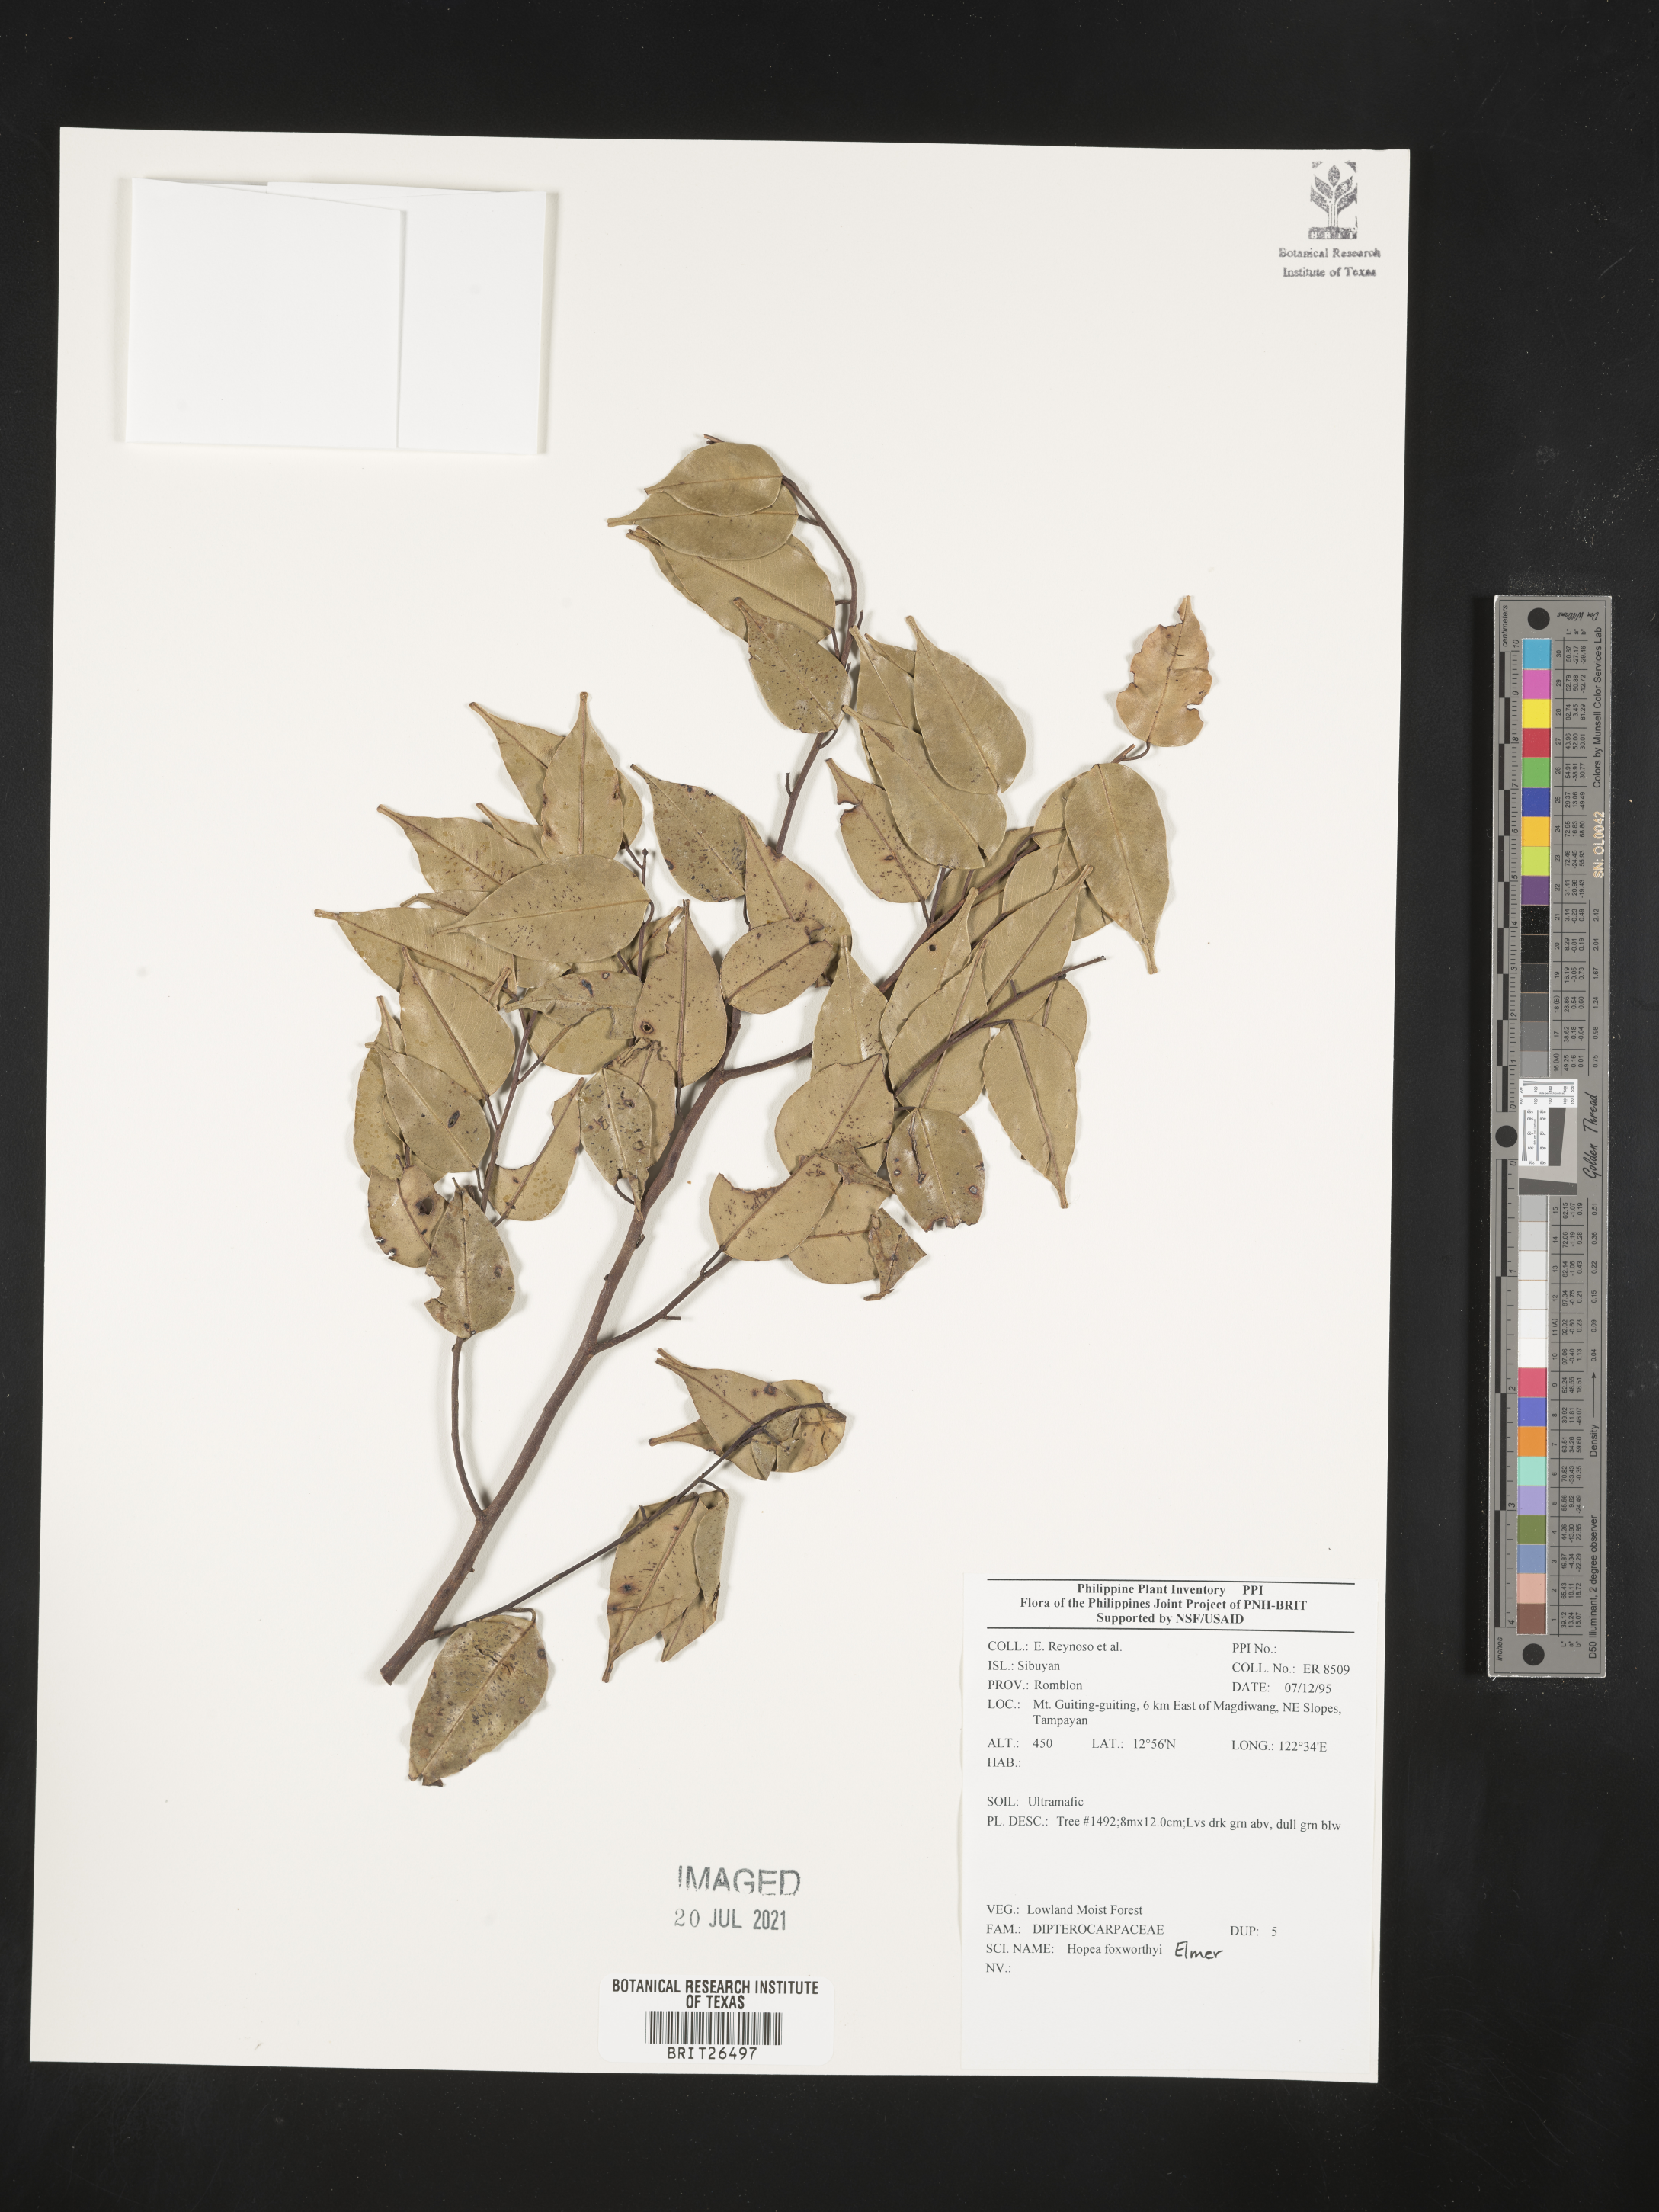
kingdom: Plantae
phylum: Tracheophyta
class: Magnoliopsida
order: Malvales
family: Dipterocarpaceae
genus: Hopea
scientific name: Hopea foxworthyi
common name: Dalingdingan
